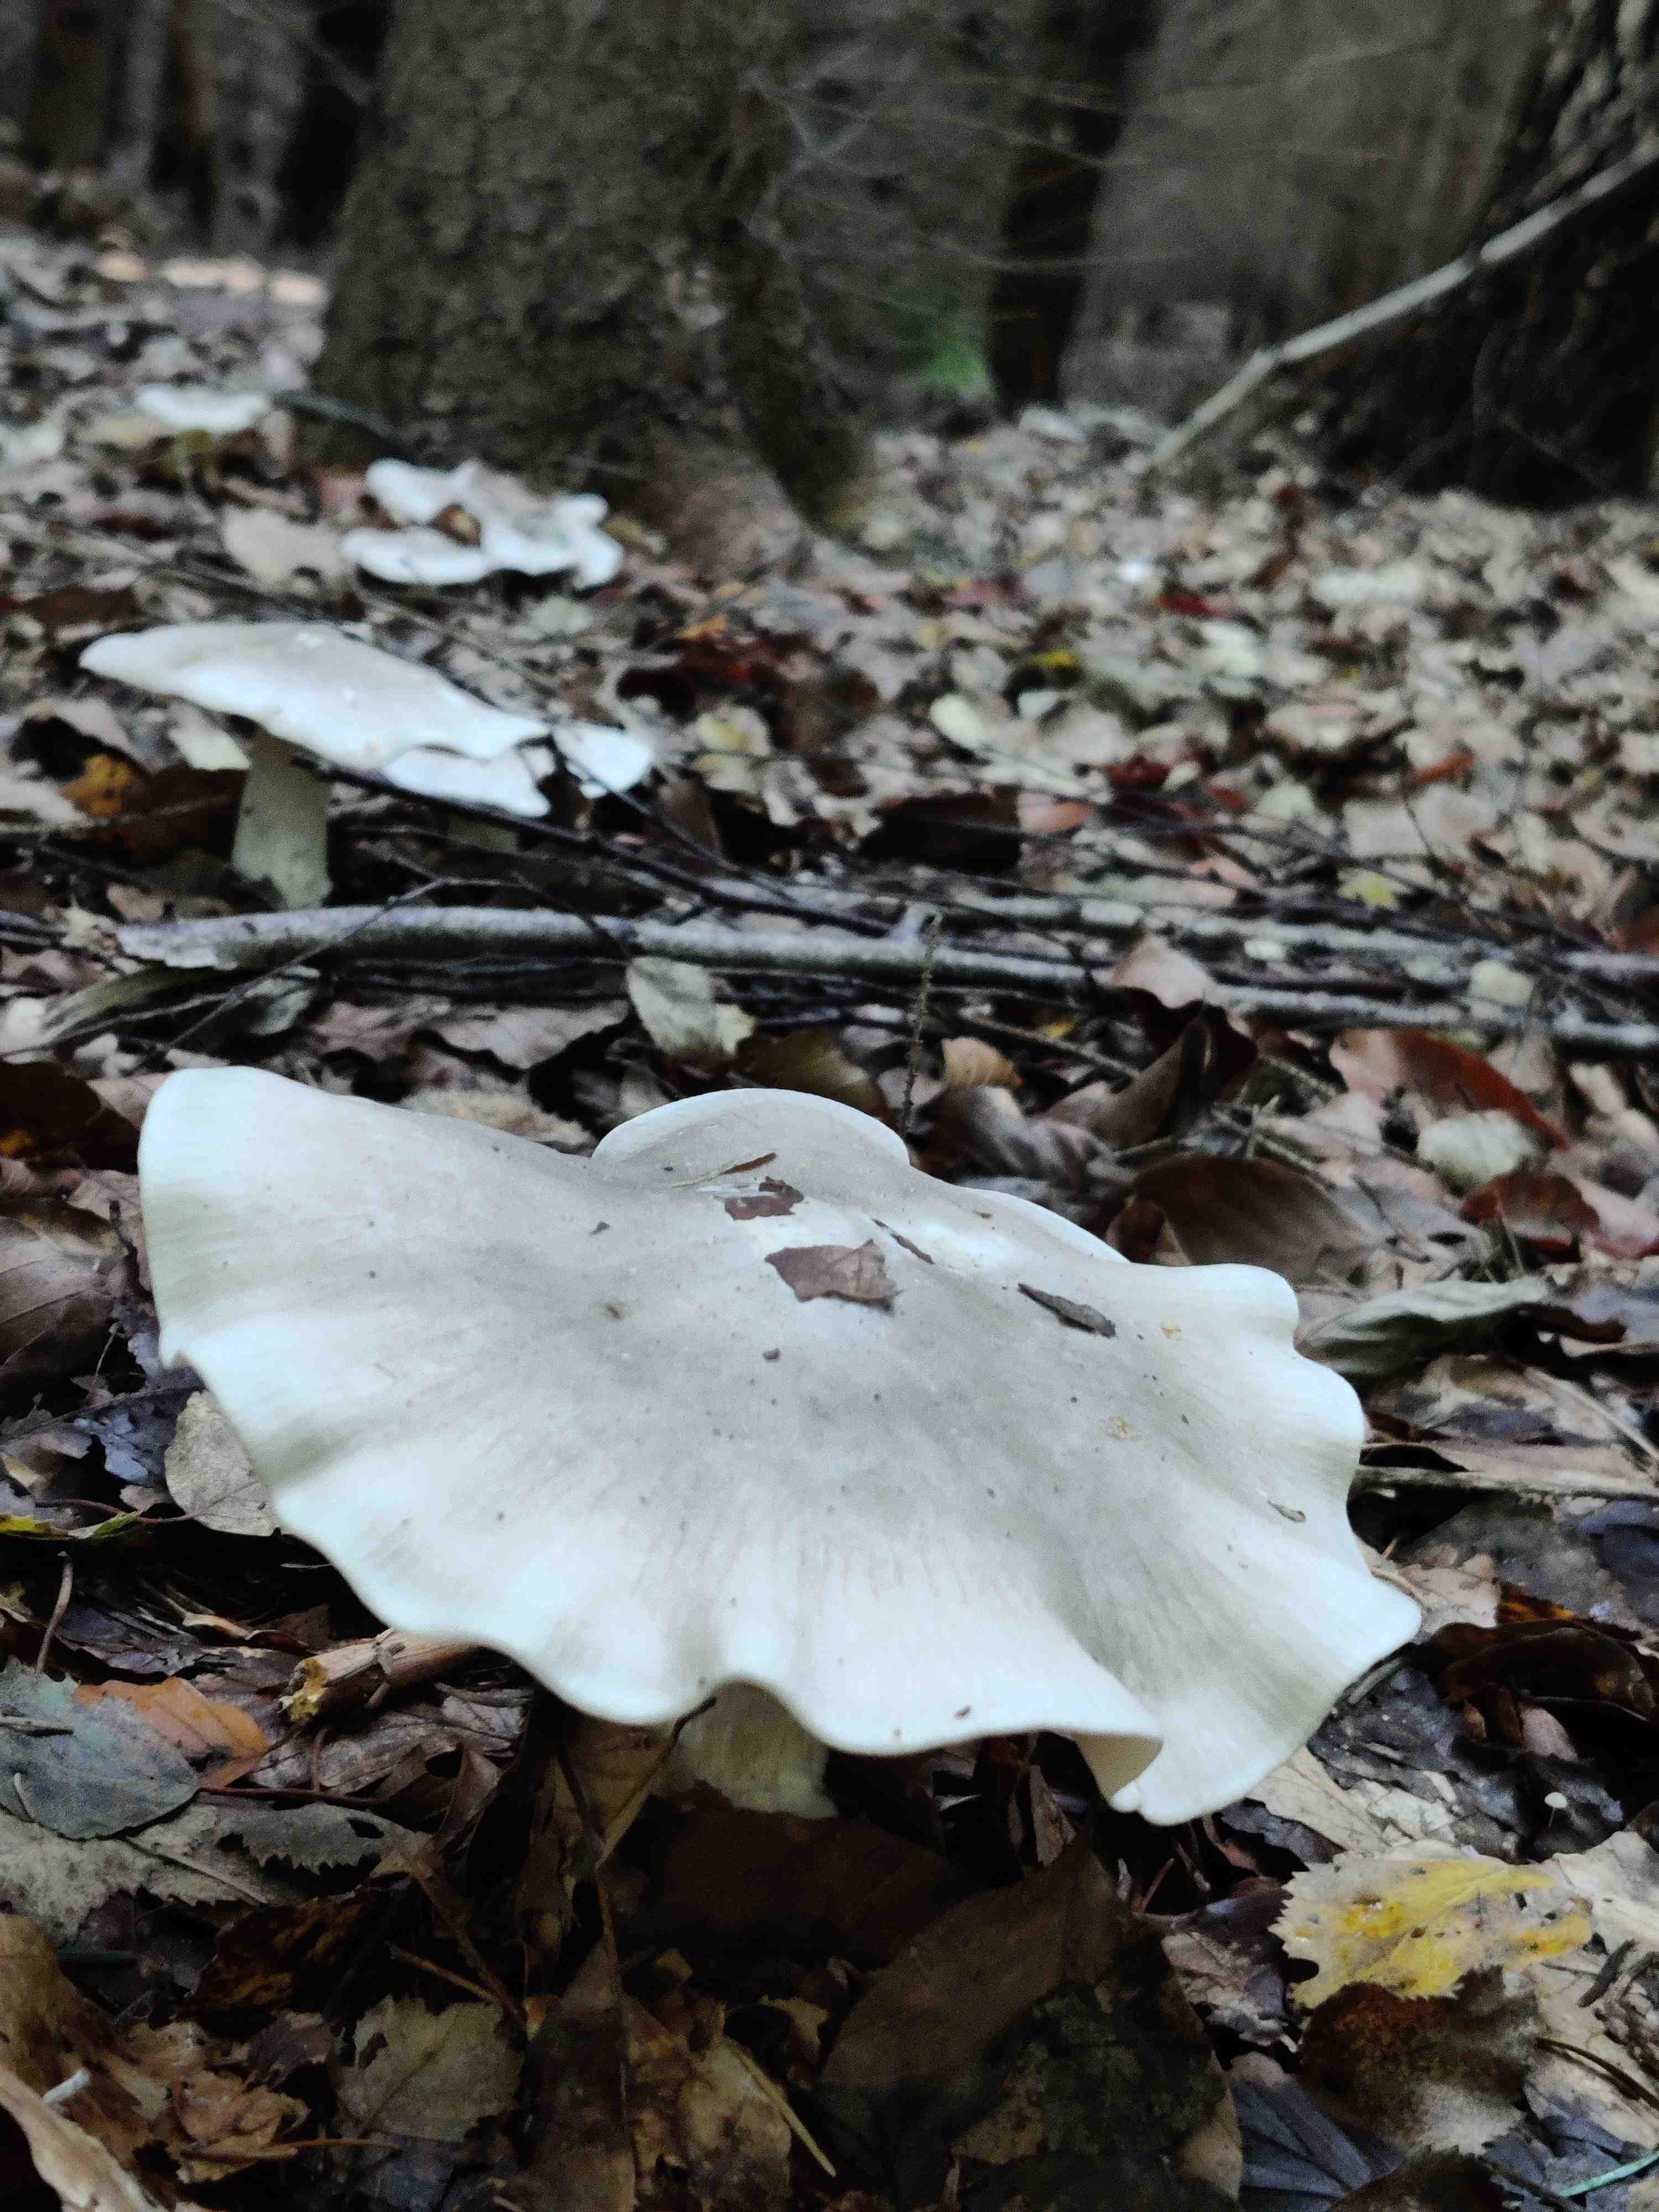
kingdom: Fungi
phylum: Basidiomycota
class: Agaricomycetes
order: Agaricales
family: Tricholomataceae
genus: Clitocybe
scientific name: Clitocybe nebularis
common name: tåge-tragthat
